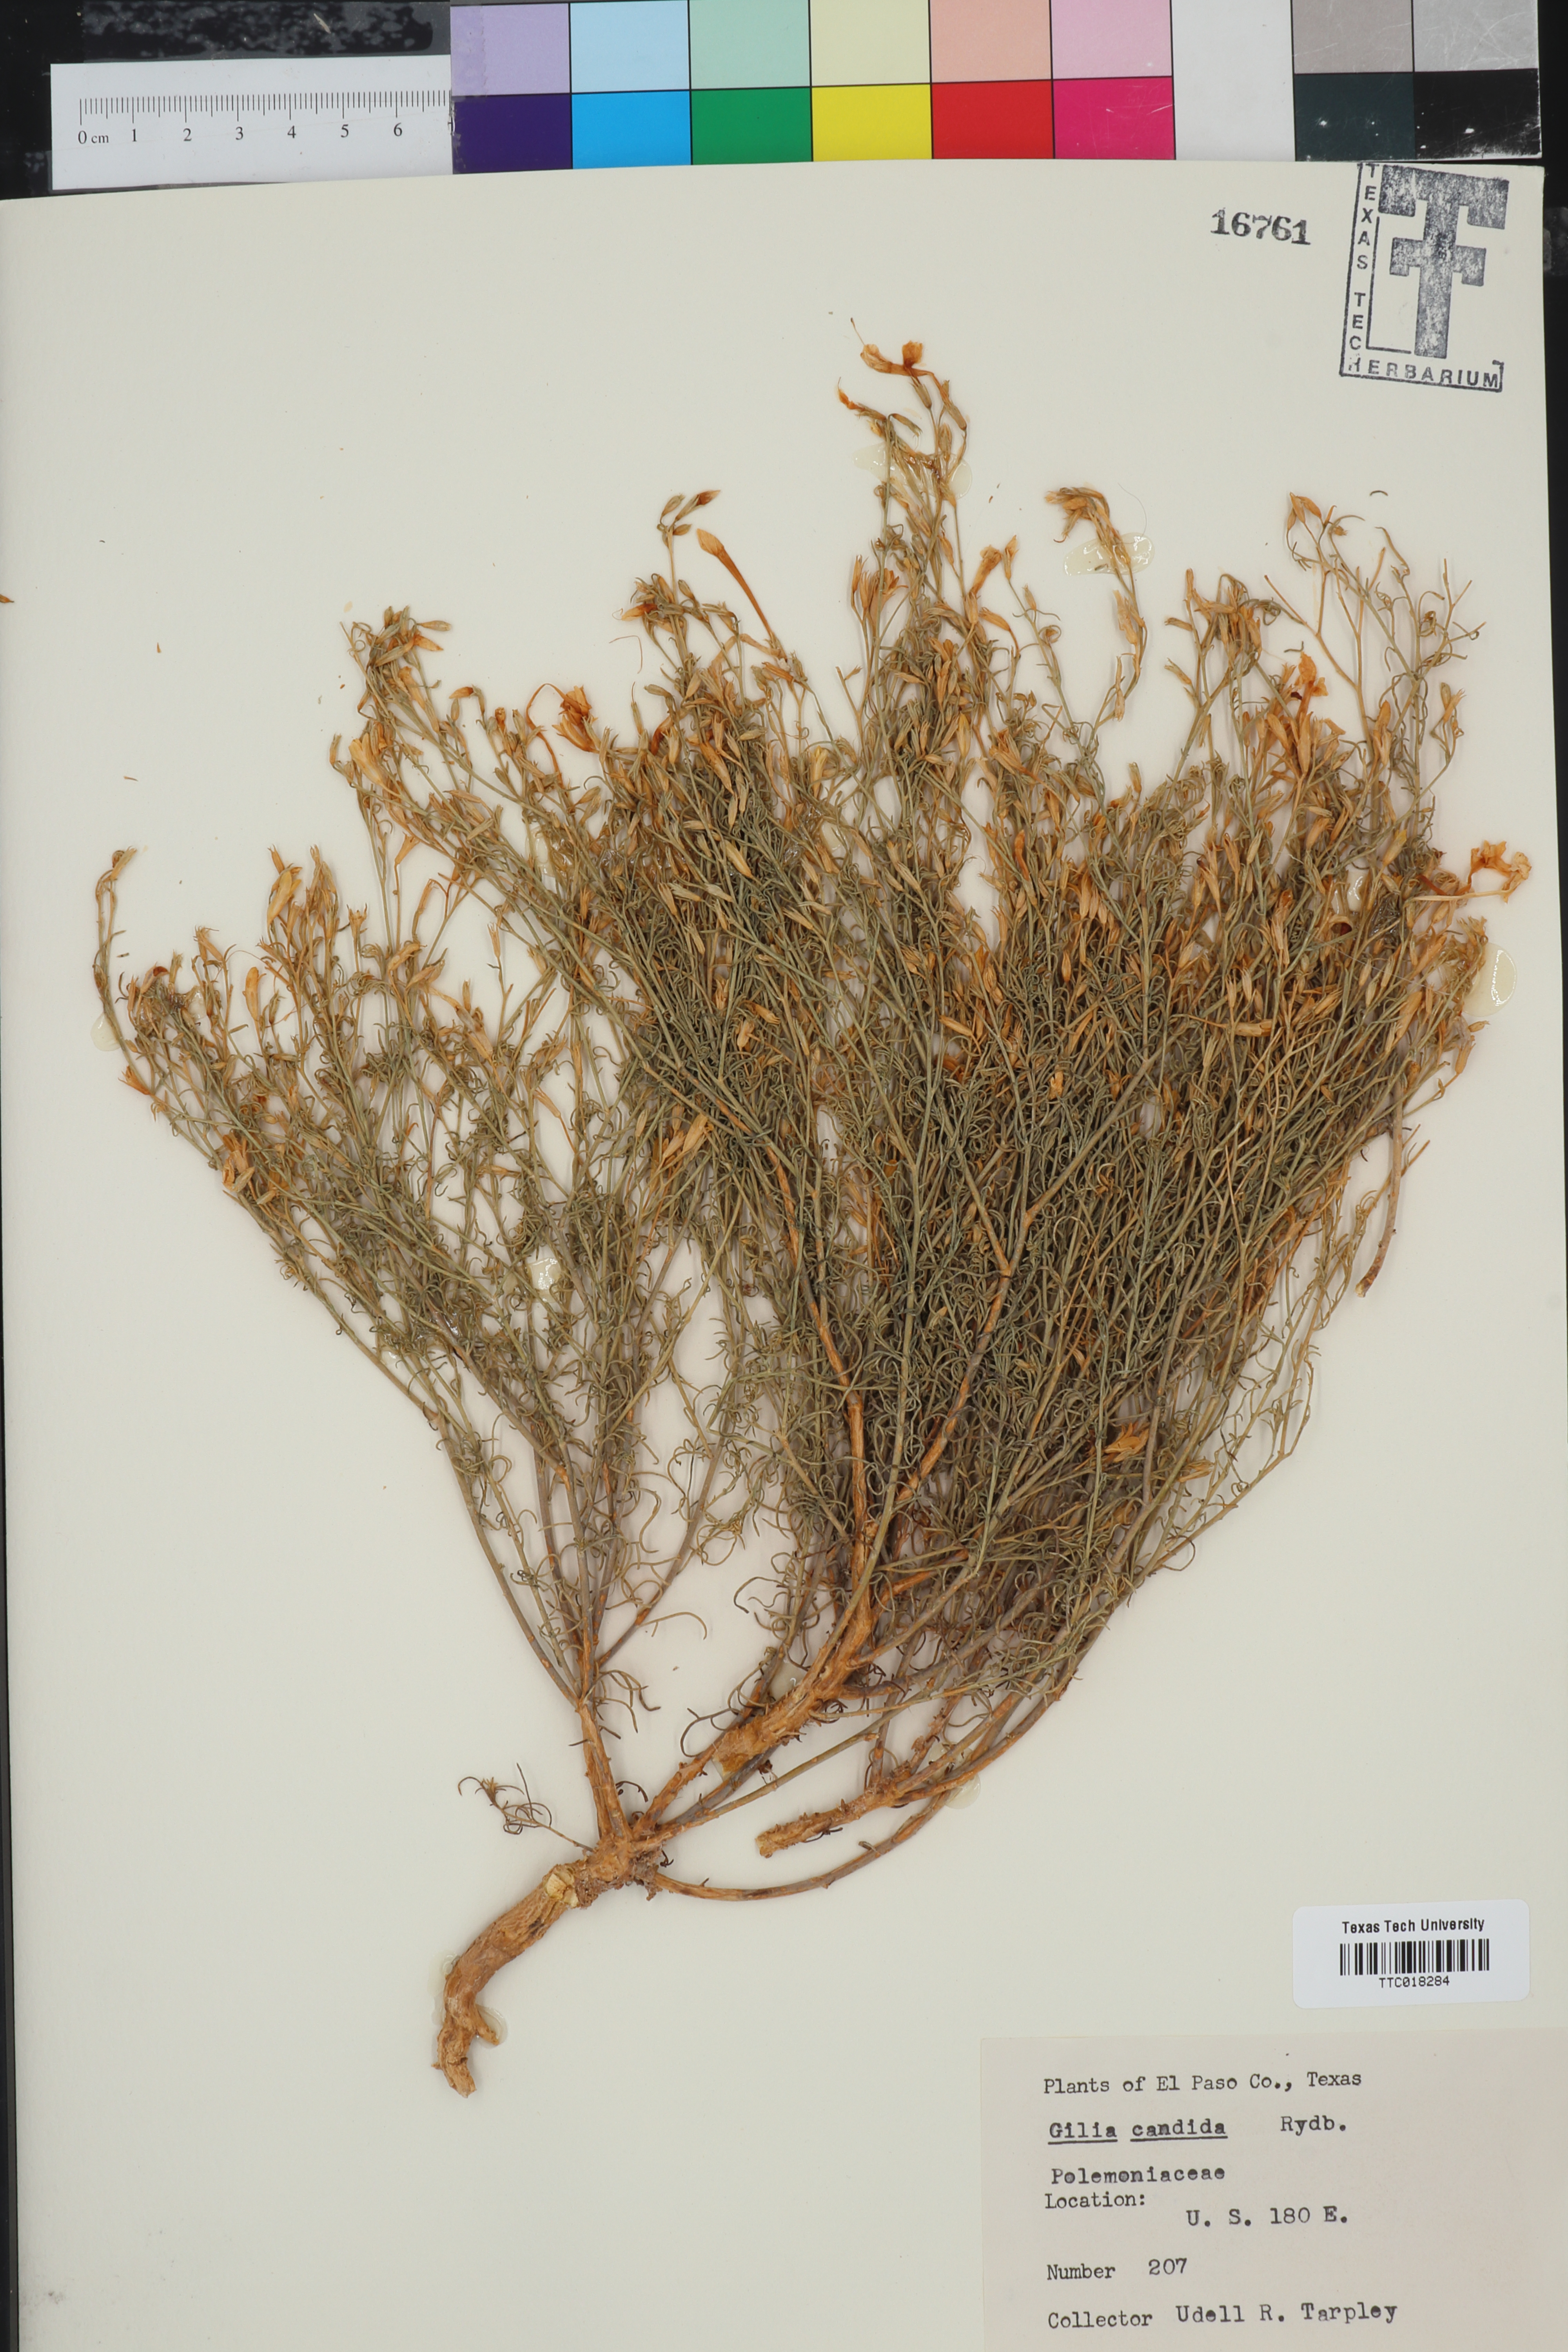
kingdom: Plantae
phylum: Tracheophyta
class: Magnoliopsida
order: Ericales
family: Polemoniaceae
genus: Ipomopsis
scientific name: Ipomopsis aggregata
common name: Scarlet gilia
